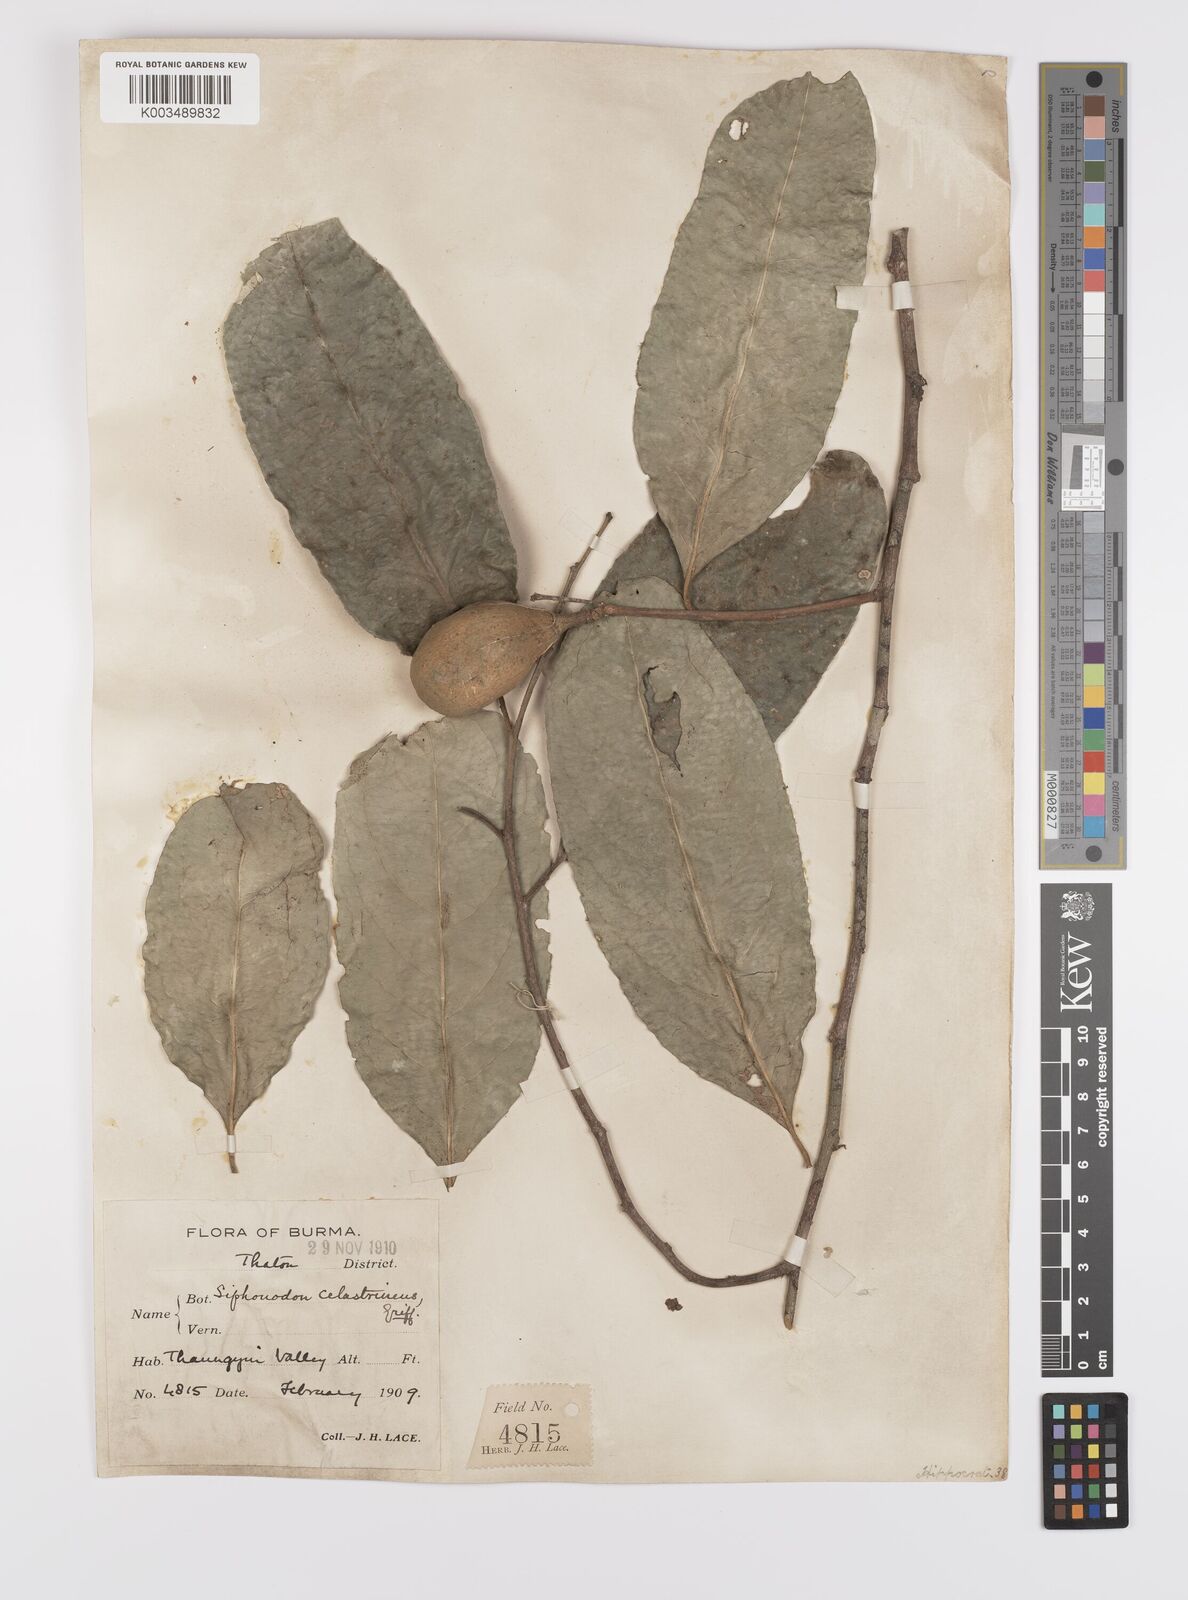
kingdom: Plantae
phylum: Tracheophyta
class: Magnoliopsida
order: Celastrales
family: Celastraceae
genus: Siphonodon
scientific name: Siphonodon celastrineus
